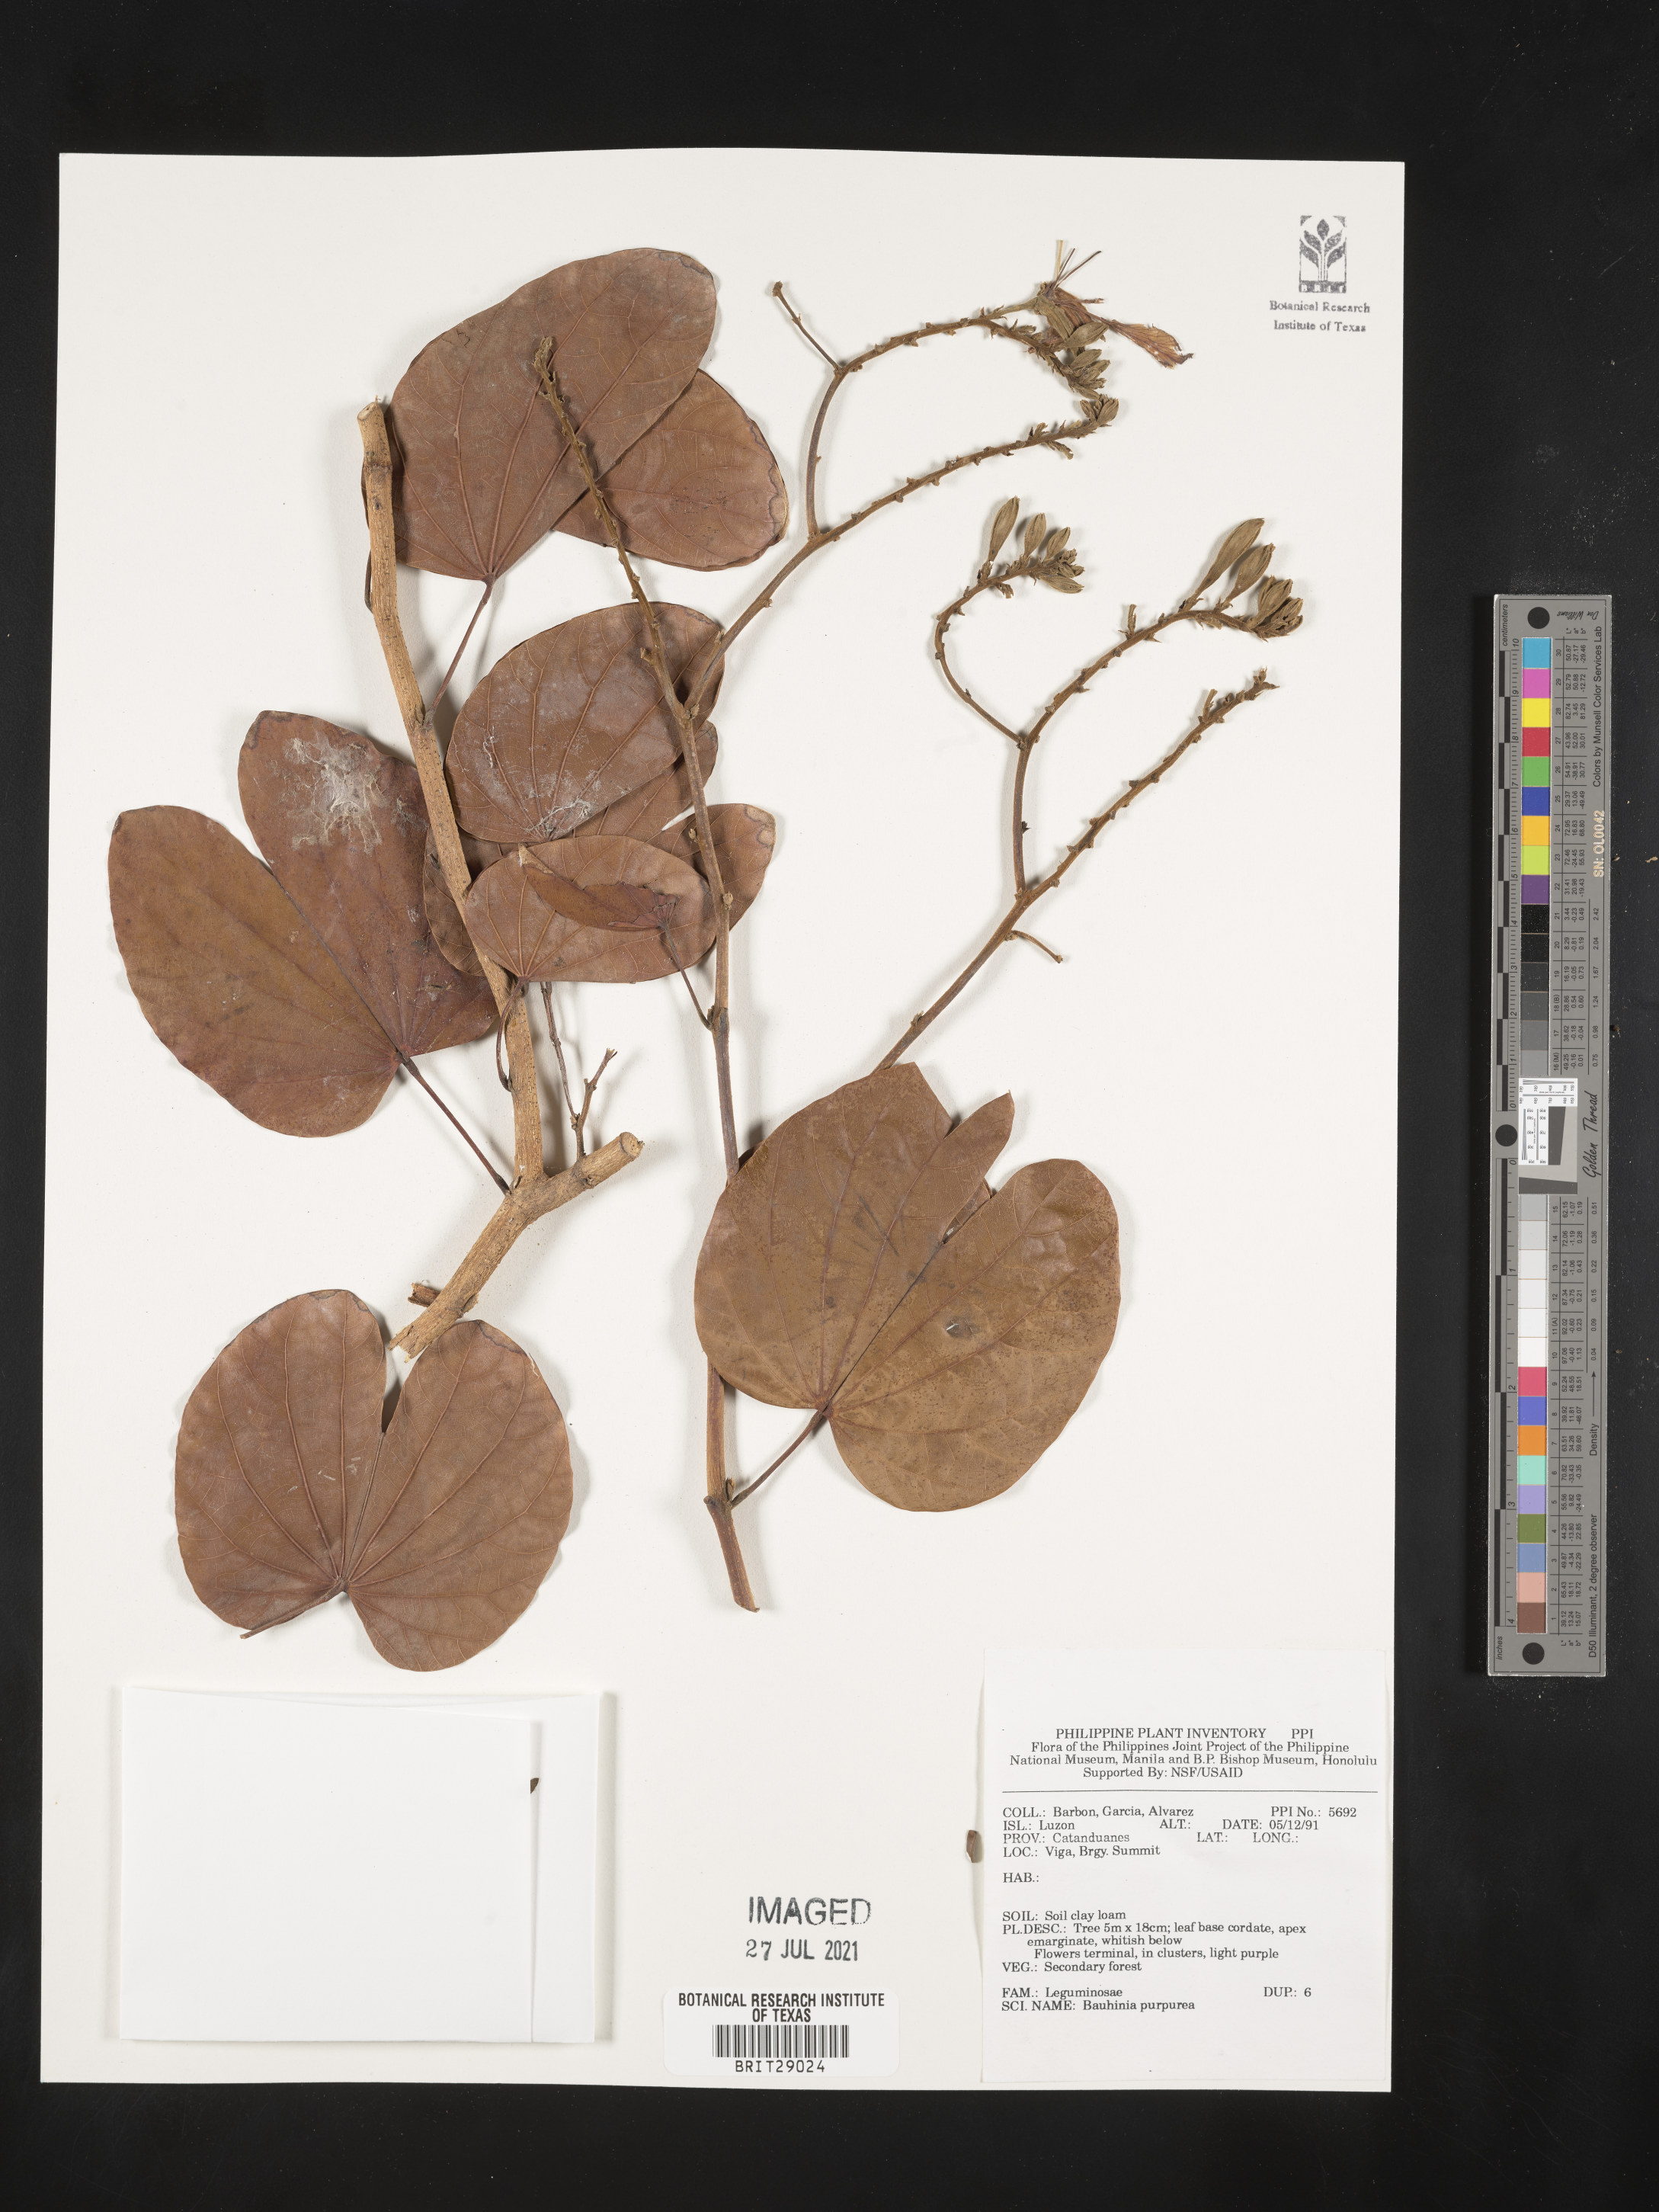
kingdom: Plantae
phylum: Tracheophyta
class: Magnoliopsida
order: Fabales
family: Fabaceae
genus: Bauhinia
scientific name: Bauhinia purpurea
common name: Butterfly-tree
